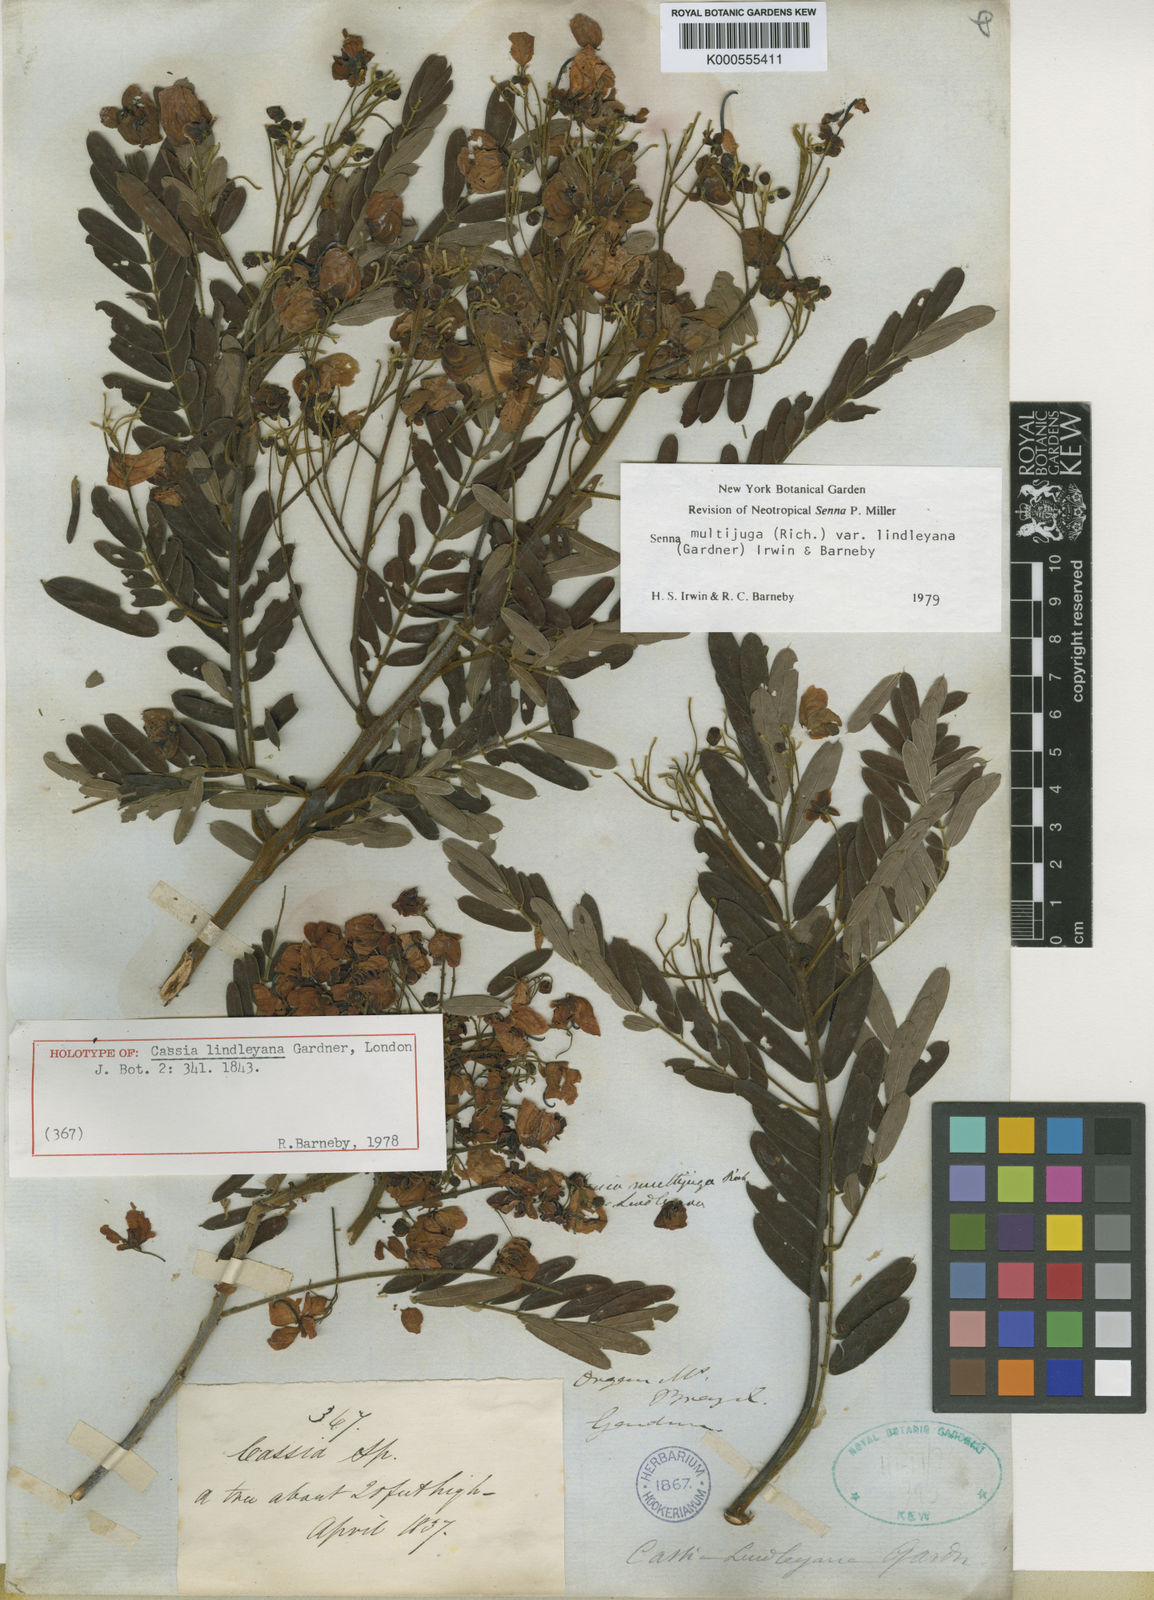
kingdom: Plantae
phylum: Tracheophyta
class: Magnoliopsida
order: Fabales
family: Fabaceae
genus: Senna
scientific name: Senna multijuga
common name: False sicklepod
